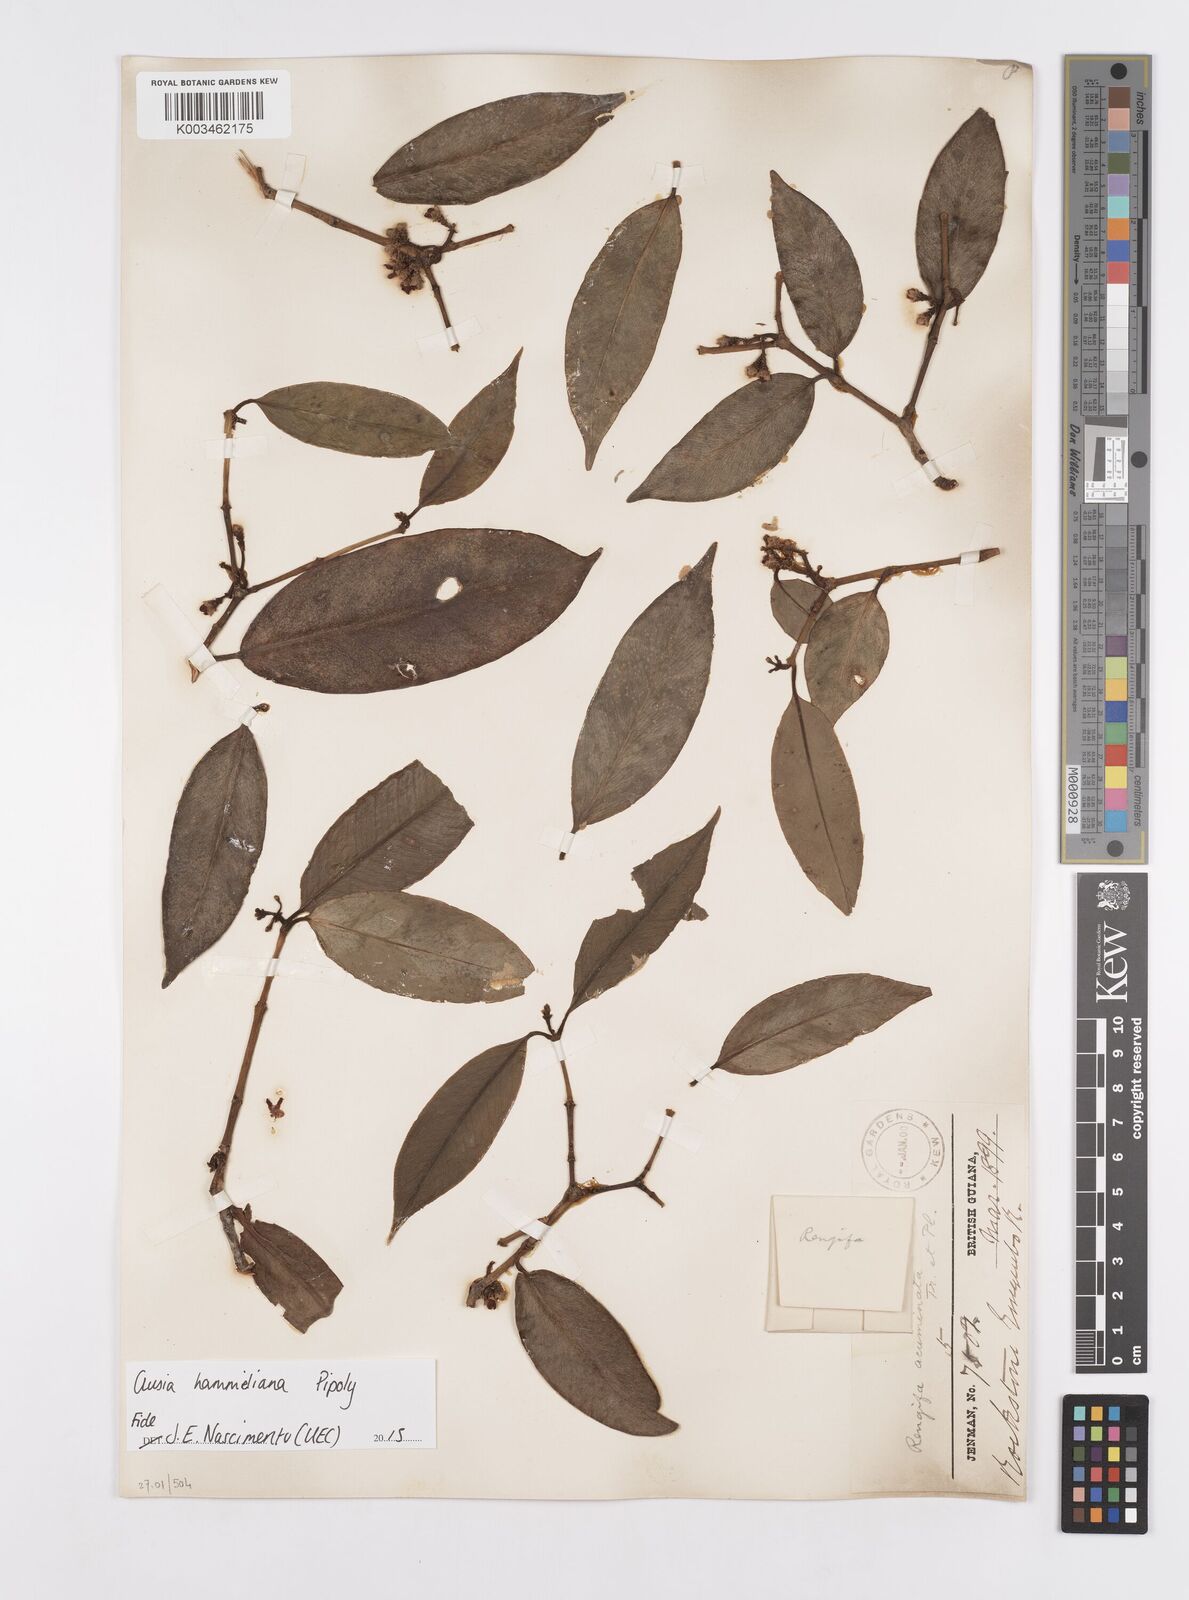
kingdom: Plantae
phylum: Tracheophyta
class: Magnoliopsida
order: Malpighiales
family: Clusiaceae
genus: Clusia
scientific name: Clusia hammeliana
